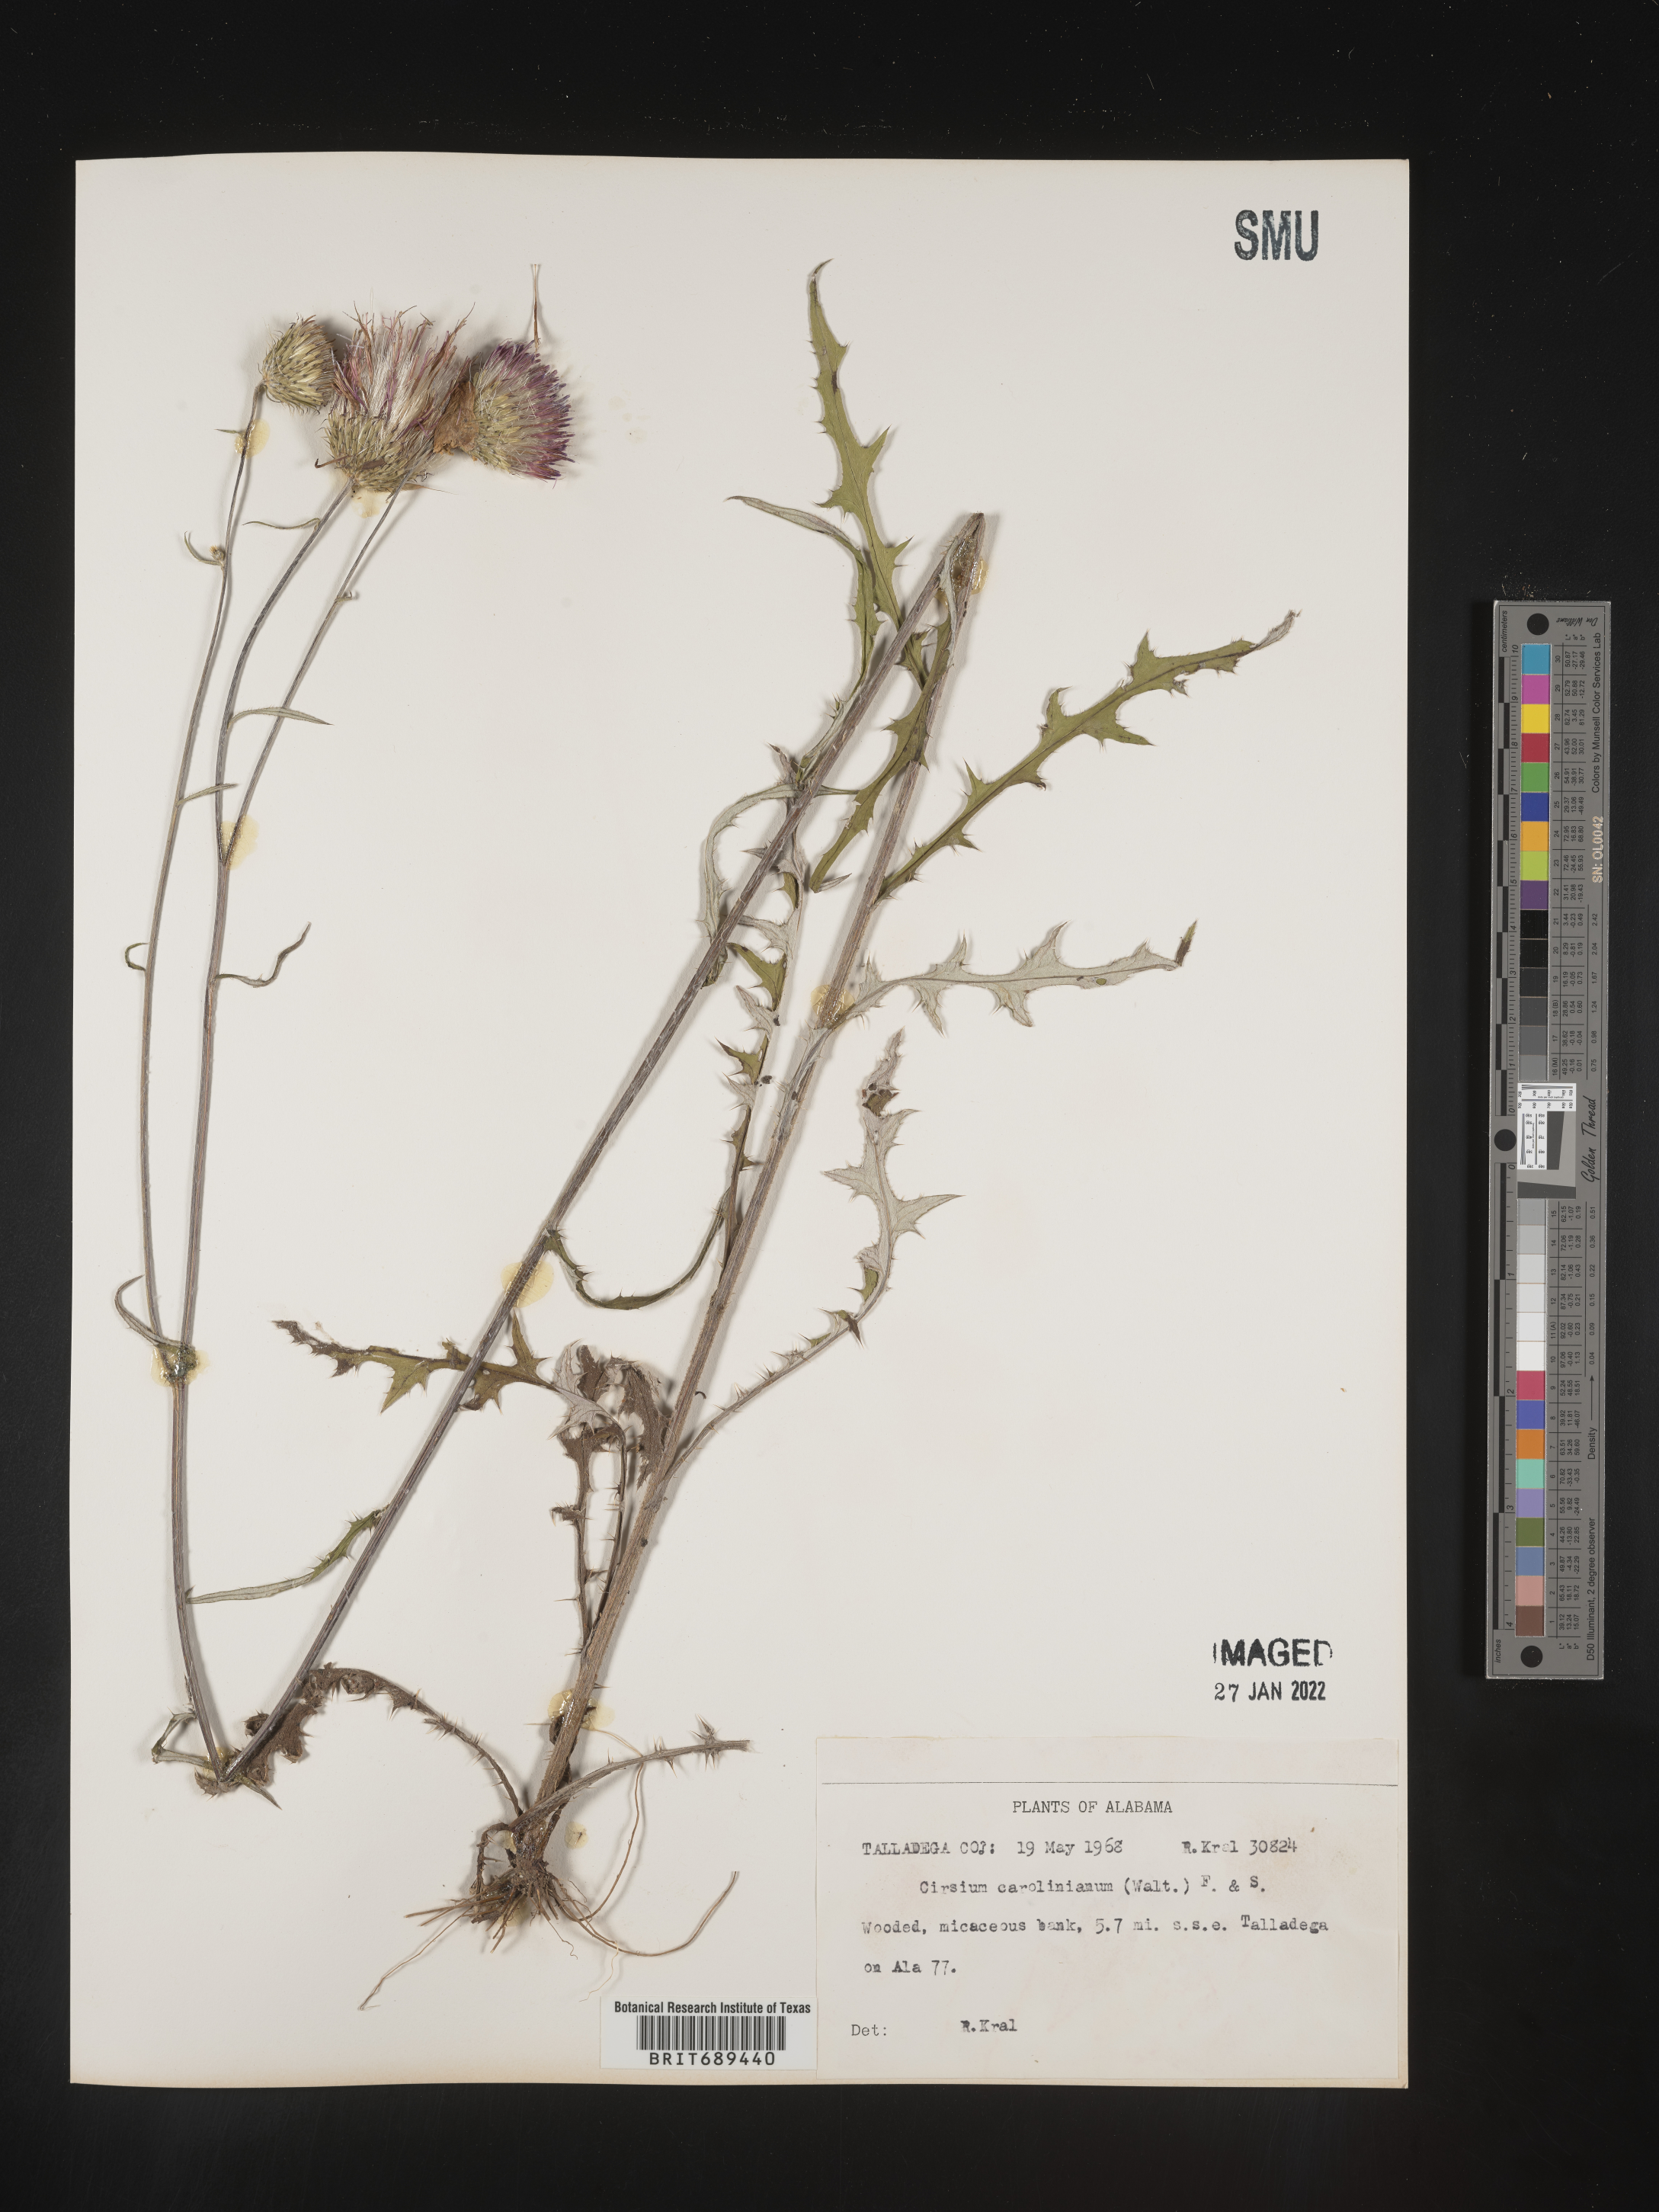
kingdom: Plantae
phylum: Tracheophyta
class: Magnoliopsida
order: Asterales
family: Asteraceae
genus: Cirsium
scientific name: Cirsium carolinianum
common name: Carolina thistle
